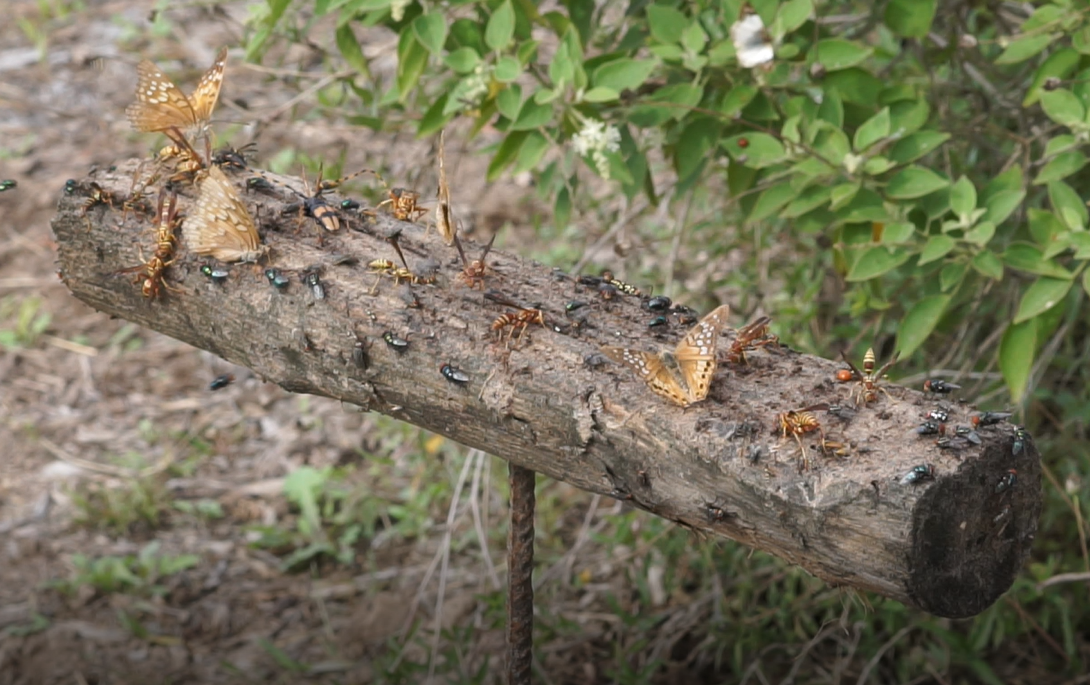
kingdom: Animalia
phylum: Arthropoda
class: Insecta
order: Lepidoptera
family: Nymphalidae
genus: Asterocampa
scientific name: Asterocampa clyton
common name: Tawny Emperor
